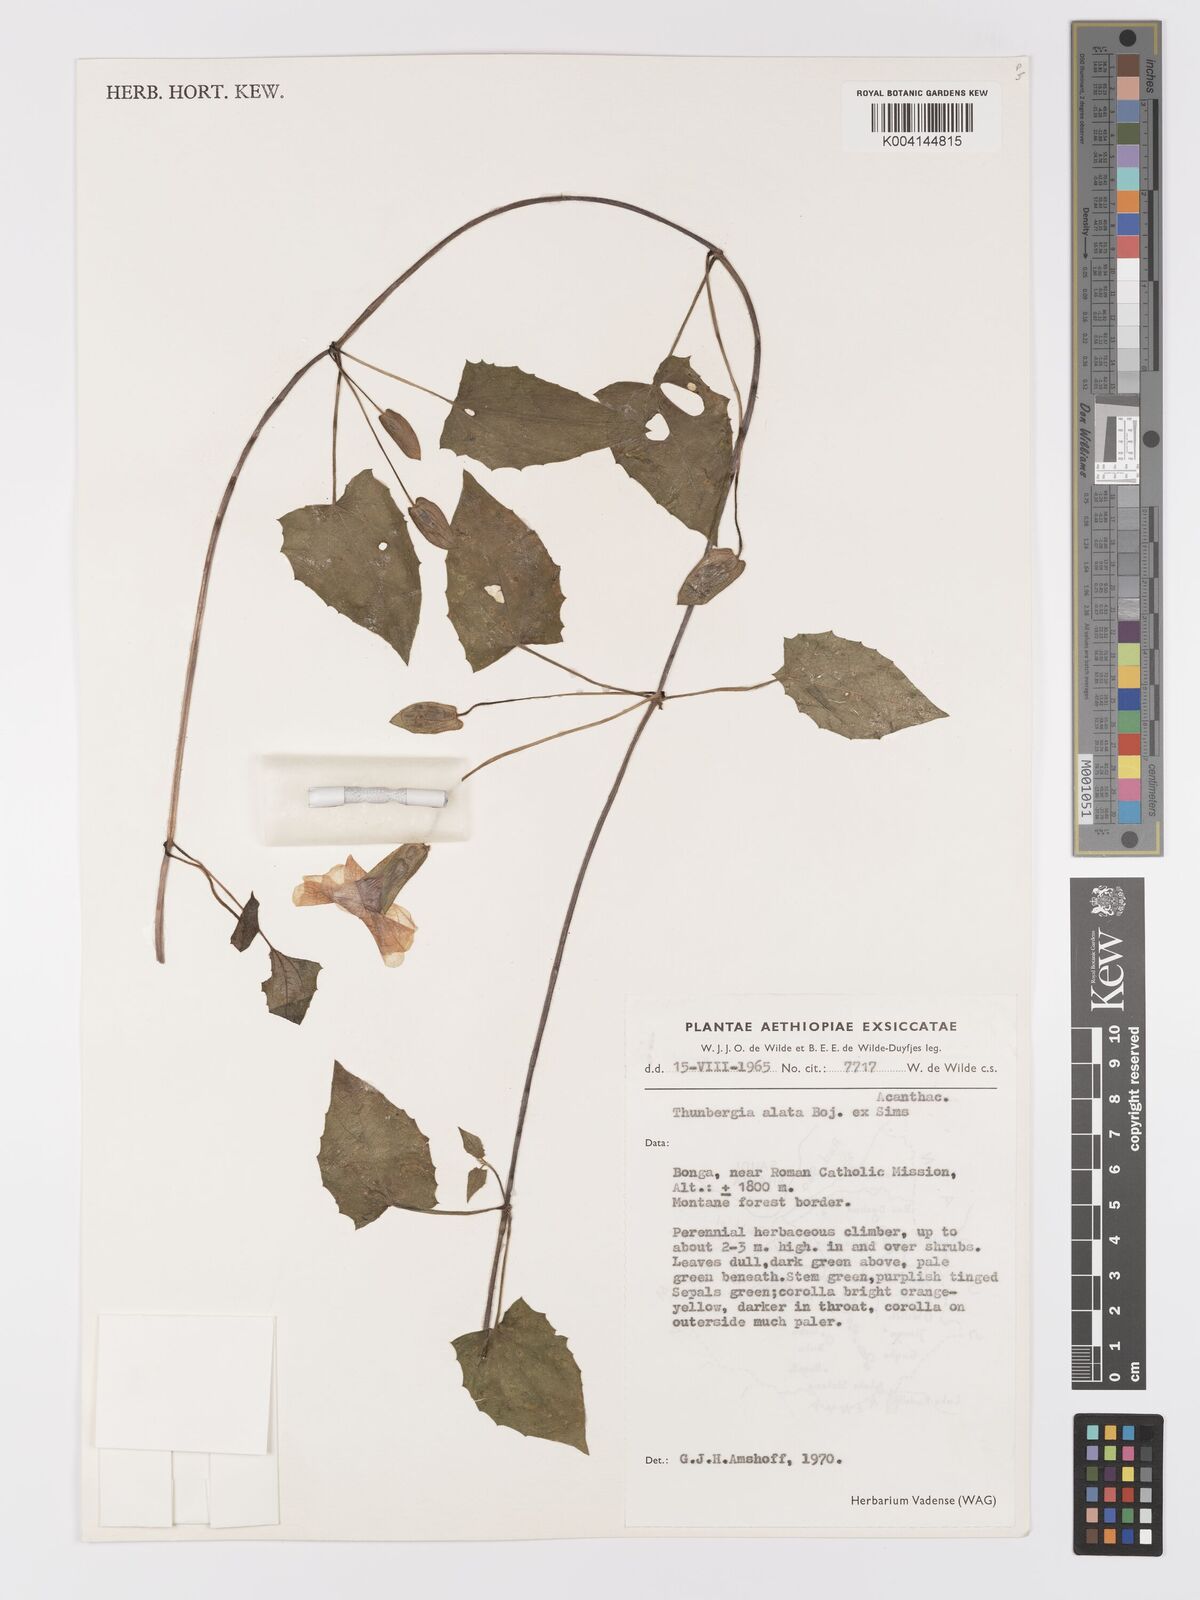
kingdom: Plantae
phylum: Tracheophyta
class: Magnoliopsida
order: Lamiales
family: Acanthaceae
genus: Thunbergia
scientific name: Thunbergia alata
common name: Blackeyed susan vine
